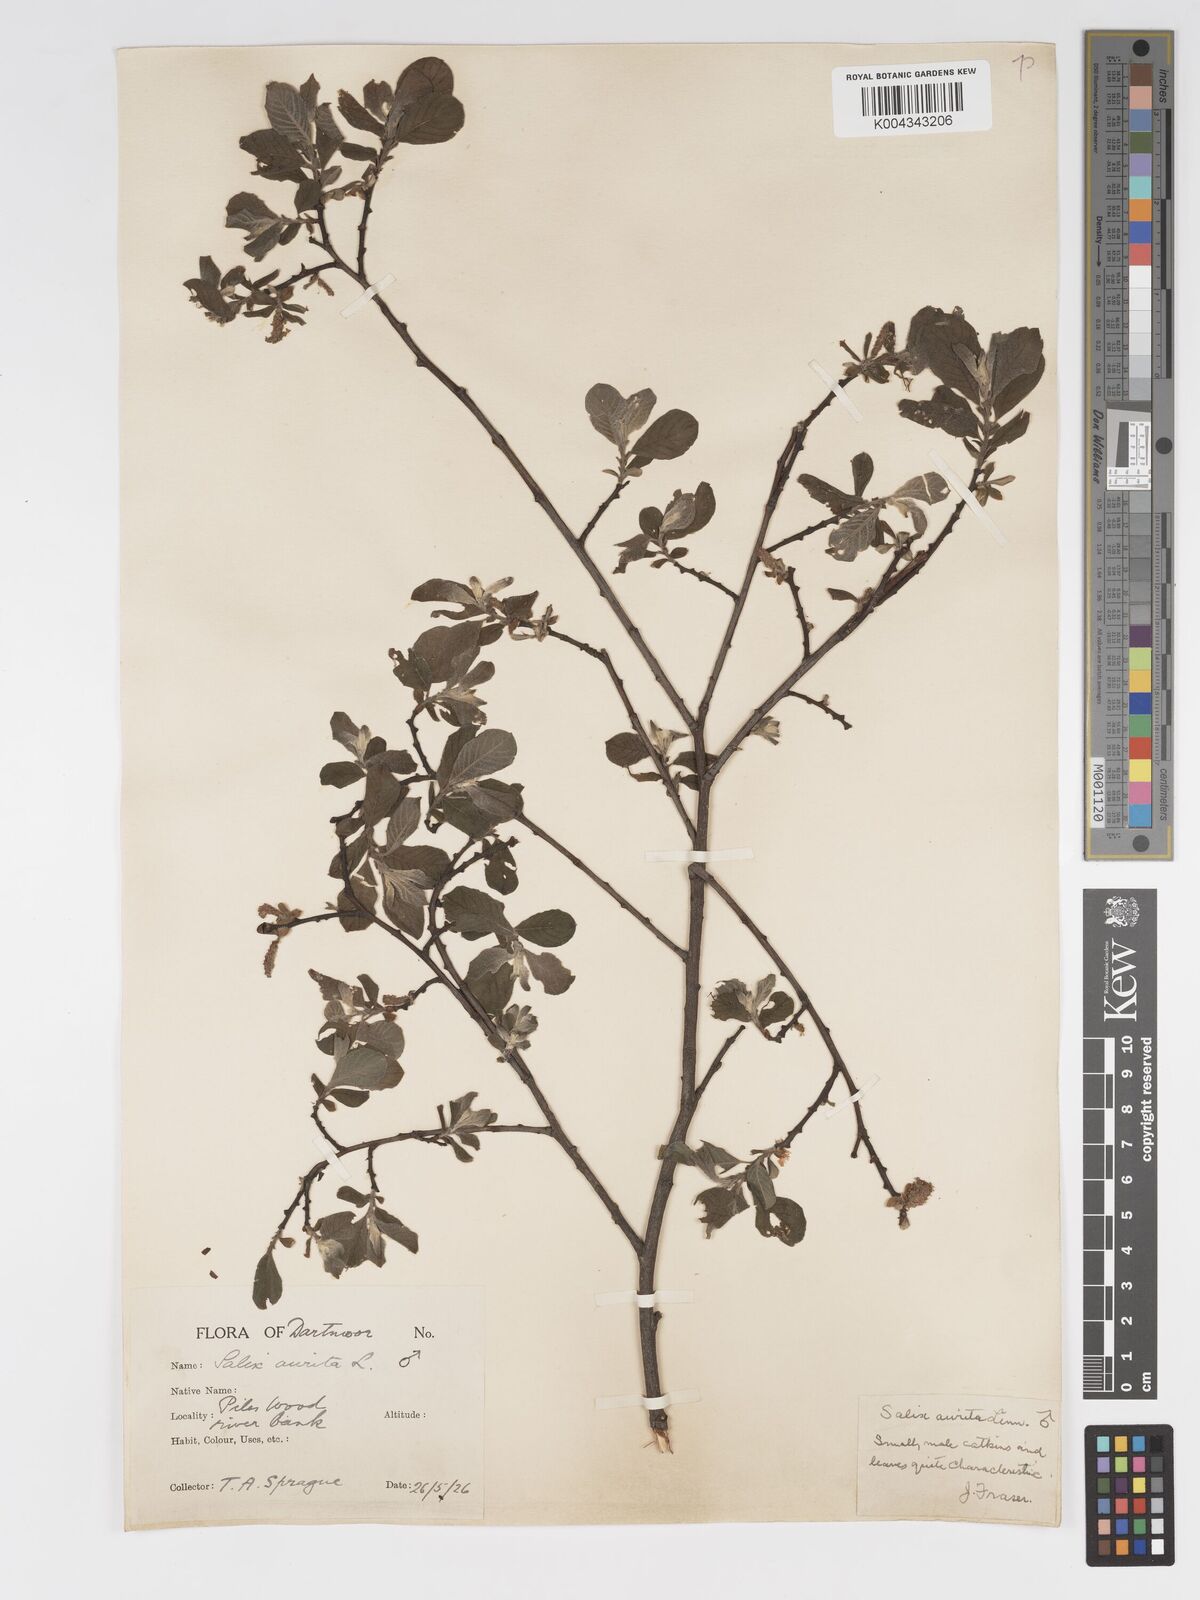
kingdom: Plantae
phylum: Tracheophyta
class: Magnoliopsida
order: Malpighiales
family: Salicaceae
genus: Salix
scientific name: Salix aurita
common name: Eared willow
